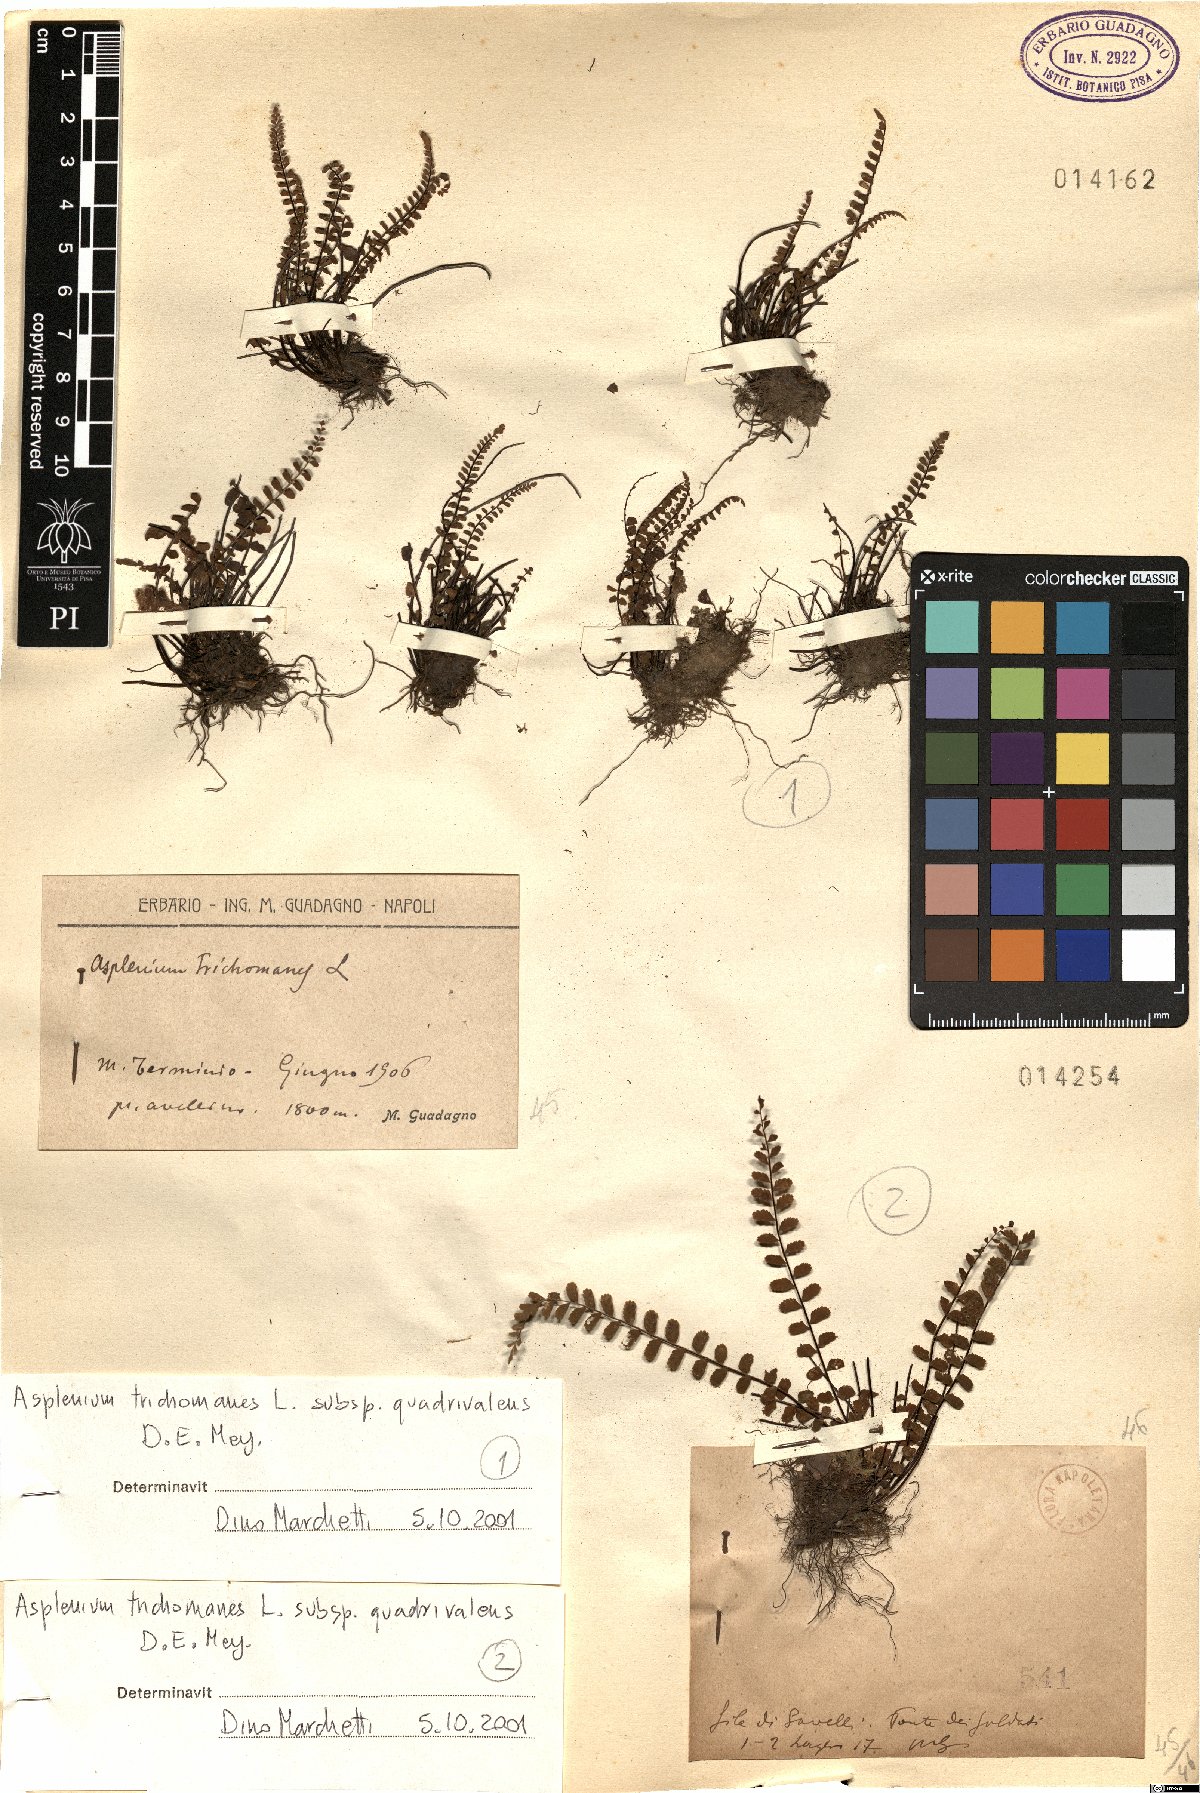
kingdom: Plantae
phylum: Tracheophyta
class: Polypodiopsida
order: Polypodiales
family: Aspleniaceae
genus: Asplenium
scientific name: Asplenium quadrivalens
